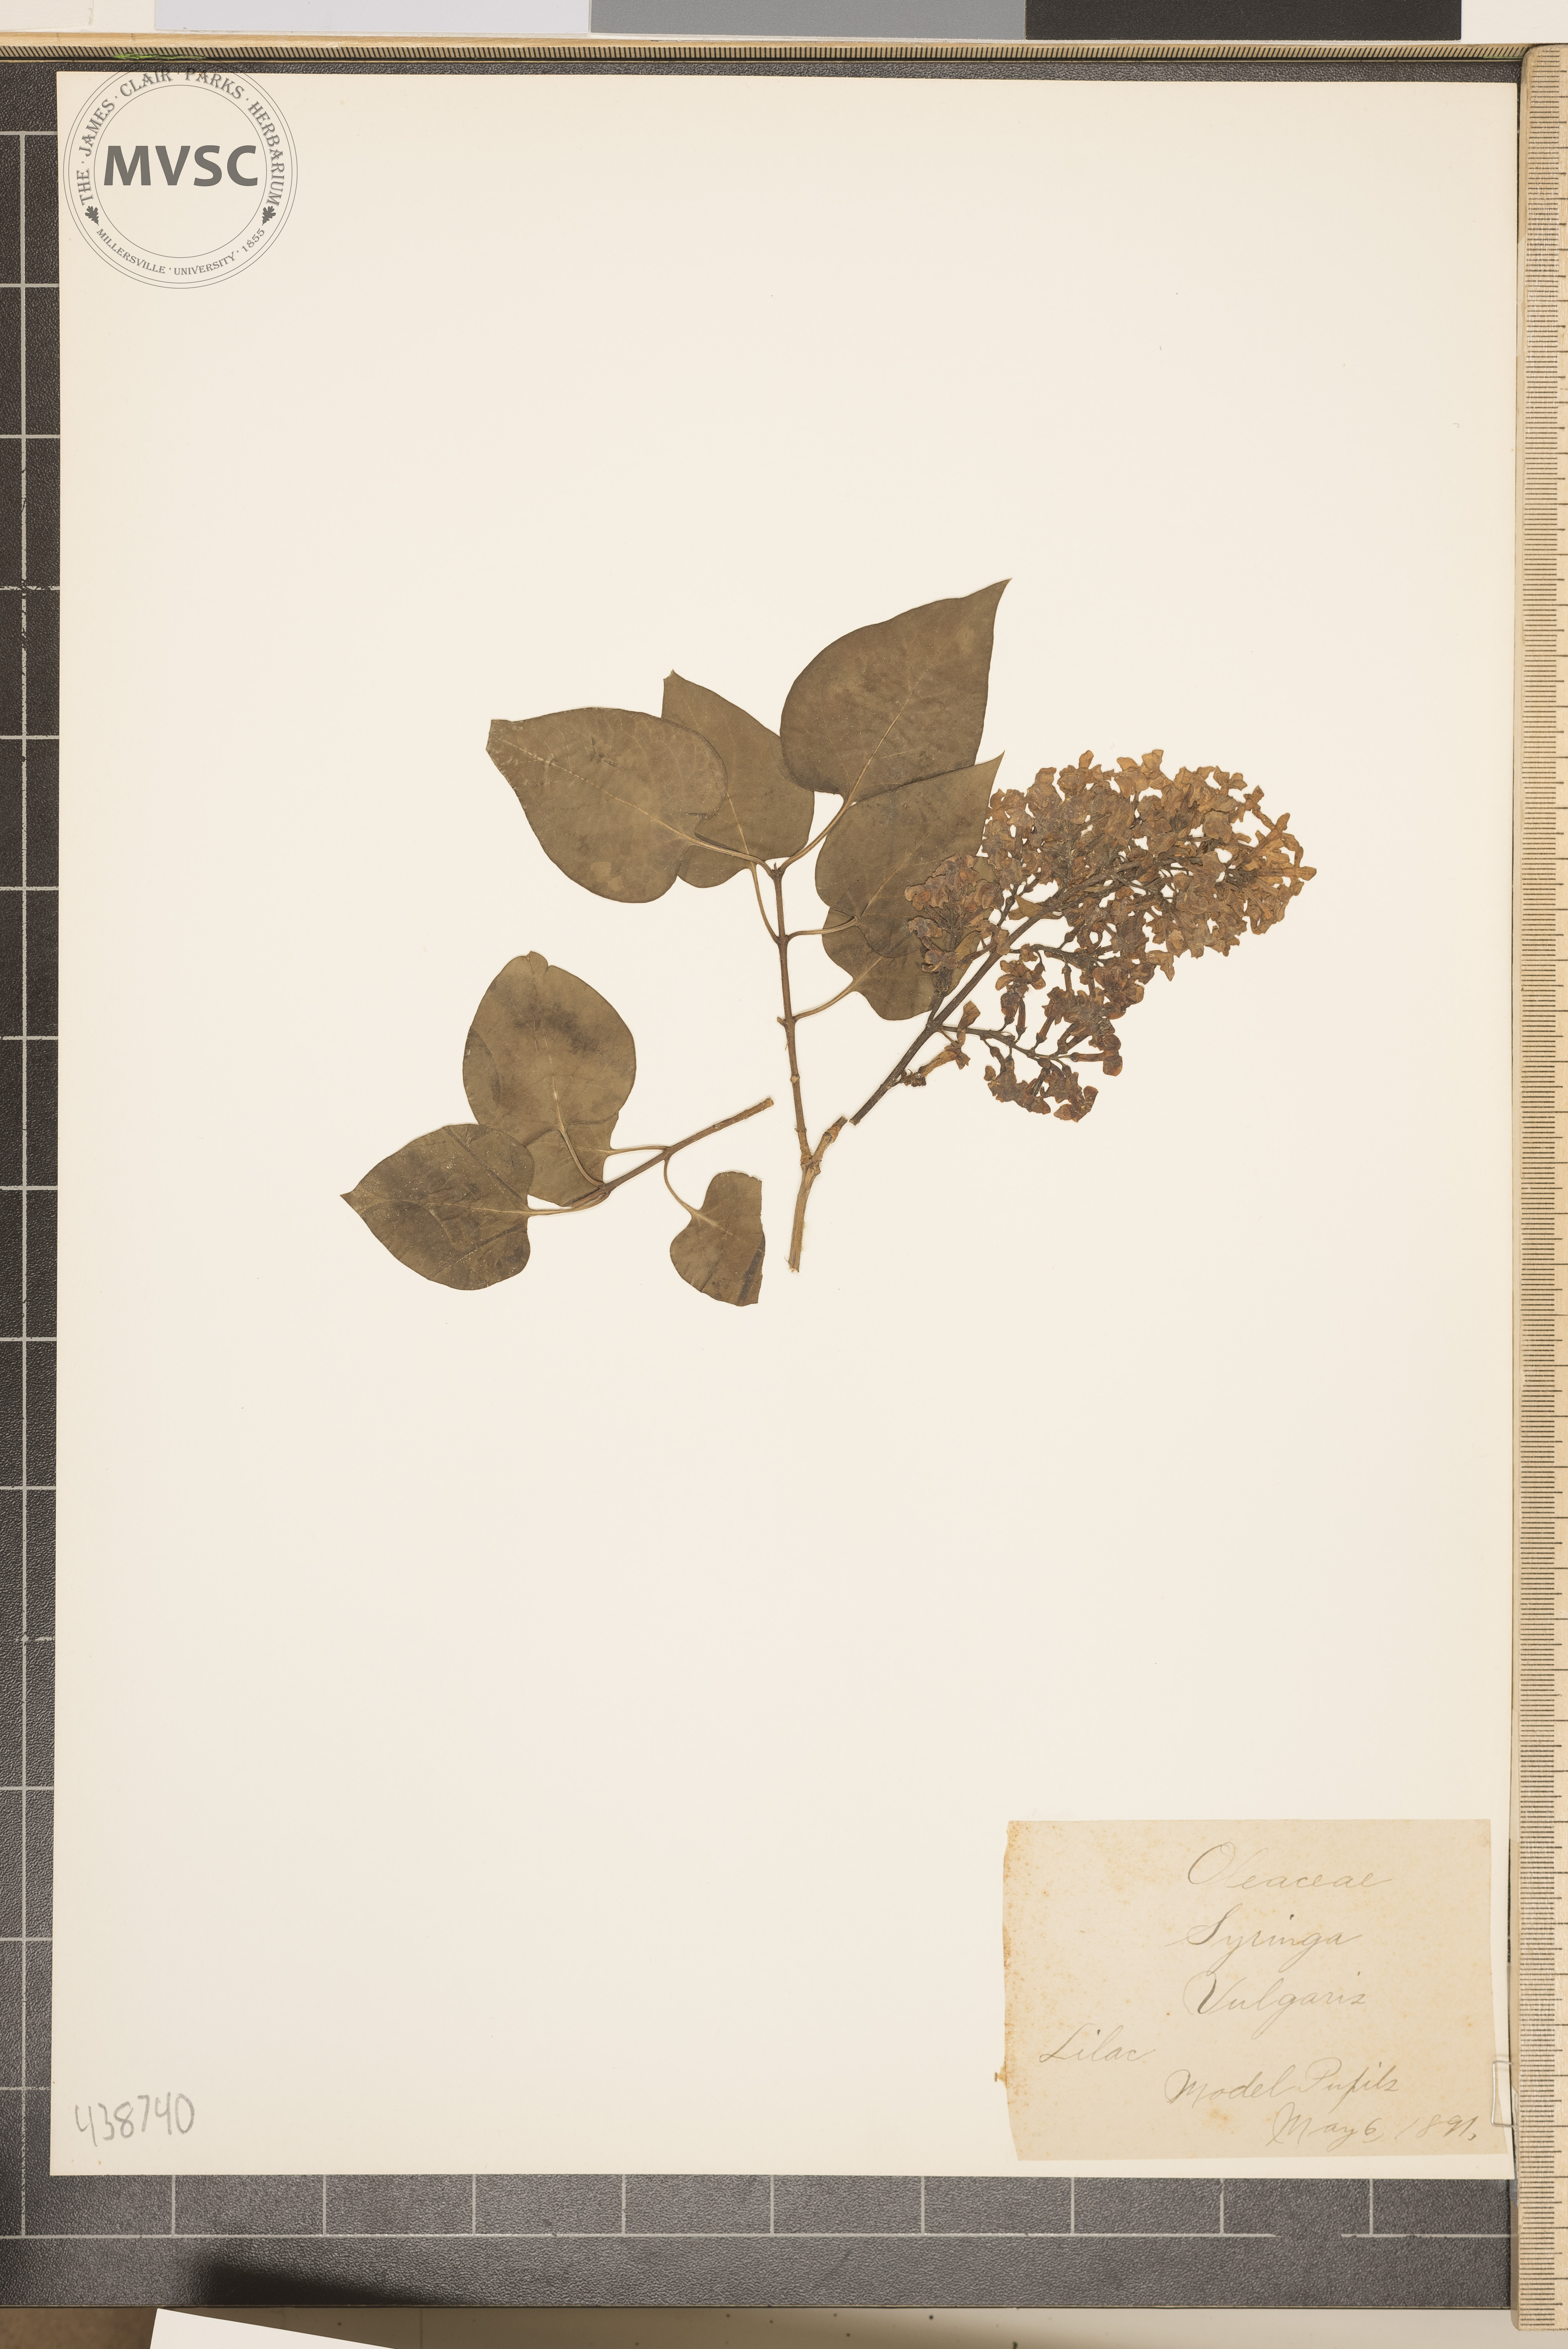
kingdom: Plantae
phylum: Tracheophyta
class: Magnoliopsida
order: Lamiales
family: Oleaceae
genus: Syringa
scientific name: Syringa vulgaris
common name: Lilac
